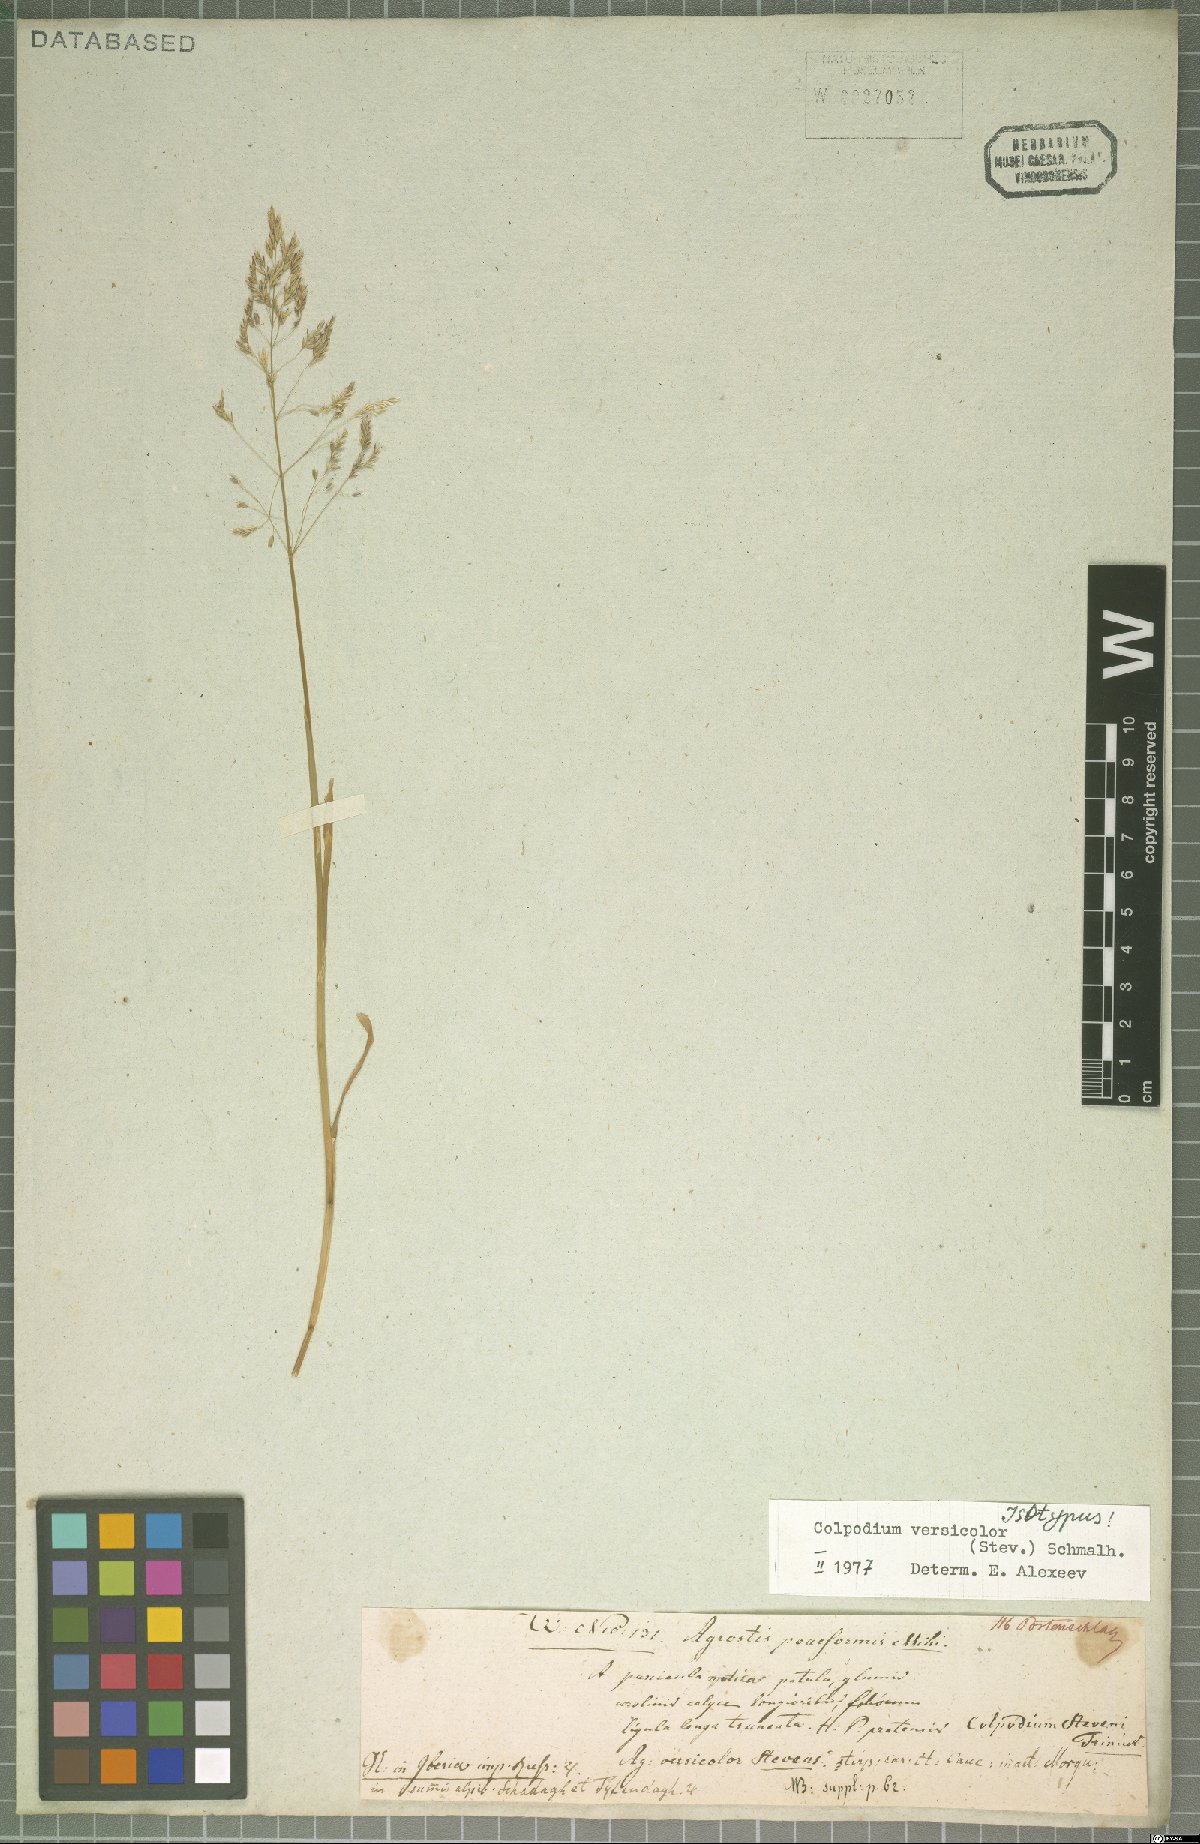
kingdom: Plantae
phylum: Tracheophyta
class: Liliopsida
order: Poales
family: Poaceae
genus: Colpodium
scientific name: Colpodium versicolor
